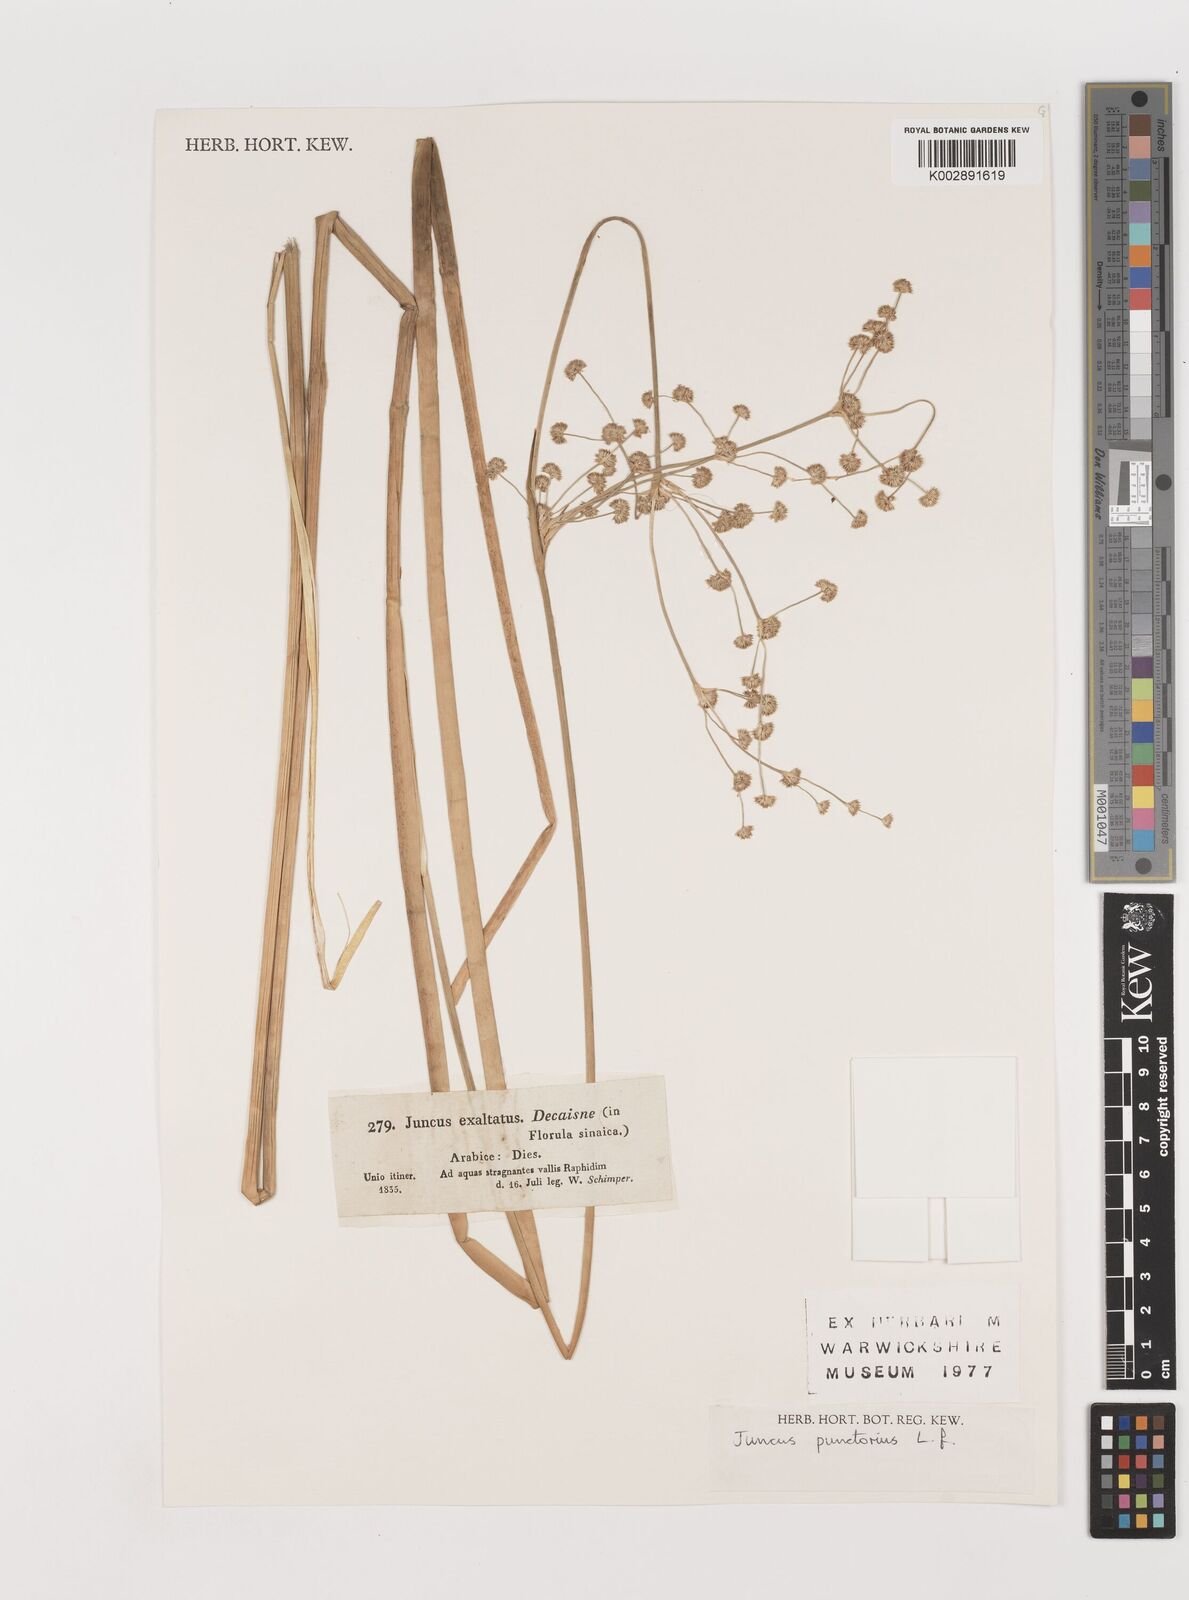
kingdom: Plantae
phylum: Tracheophyta
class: Liliopsida
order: Poales
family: Juncaceae
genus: Juncus
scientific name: Juncus punctorius
